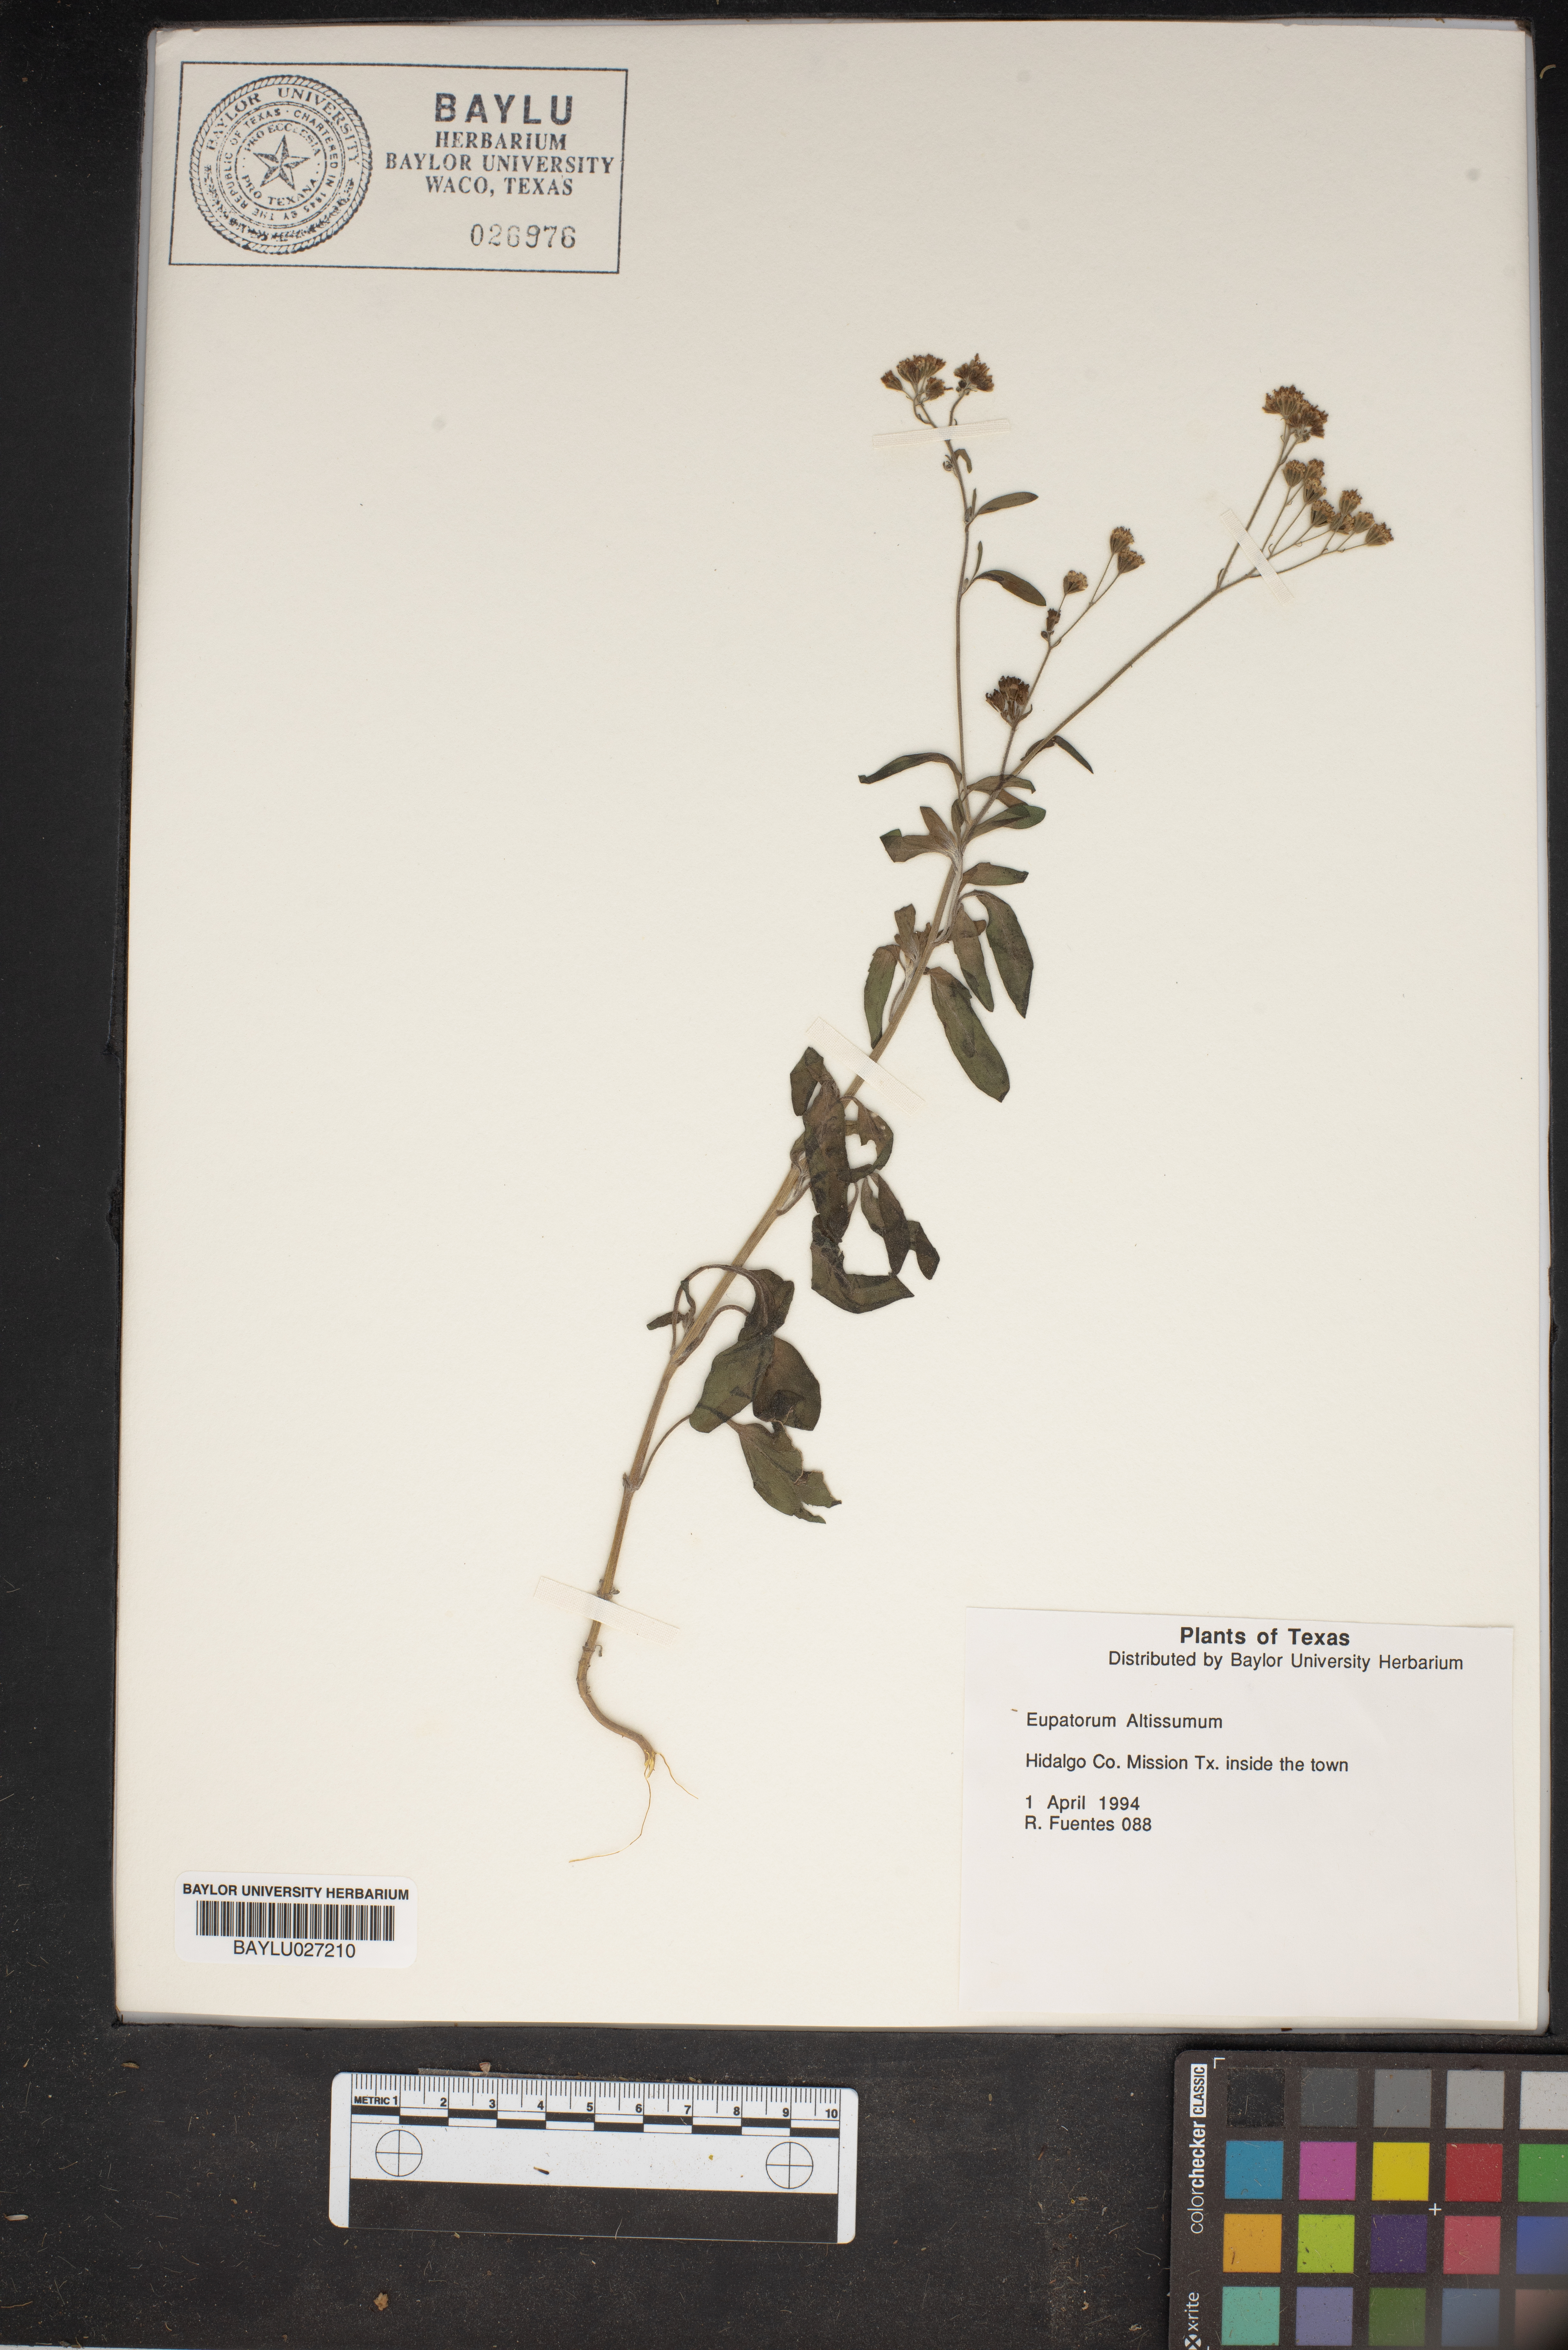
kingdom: Plantae
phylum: Tracheophyta
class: Magnoliopsida
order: Asterales
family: Asteraceae
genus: Eupatorium
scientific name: Eupatorium altissimum
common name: Tall thoroughwort
